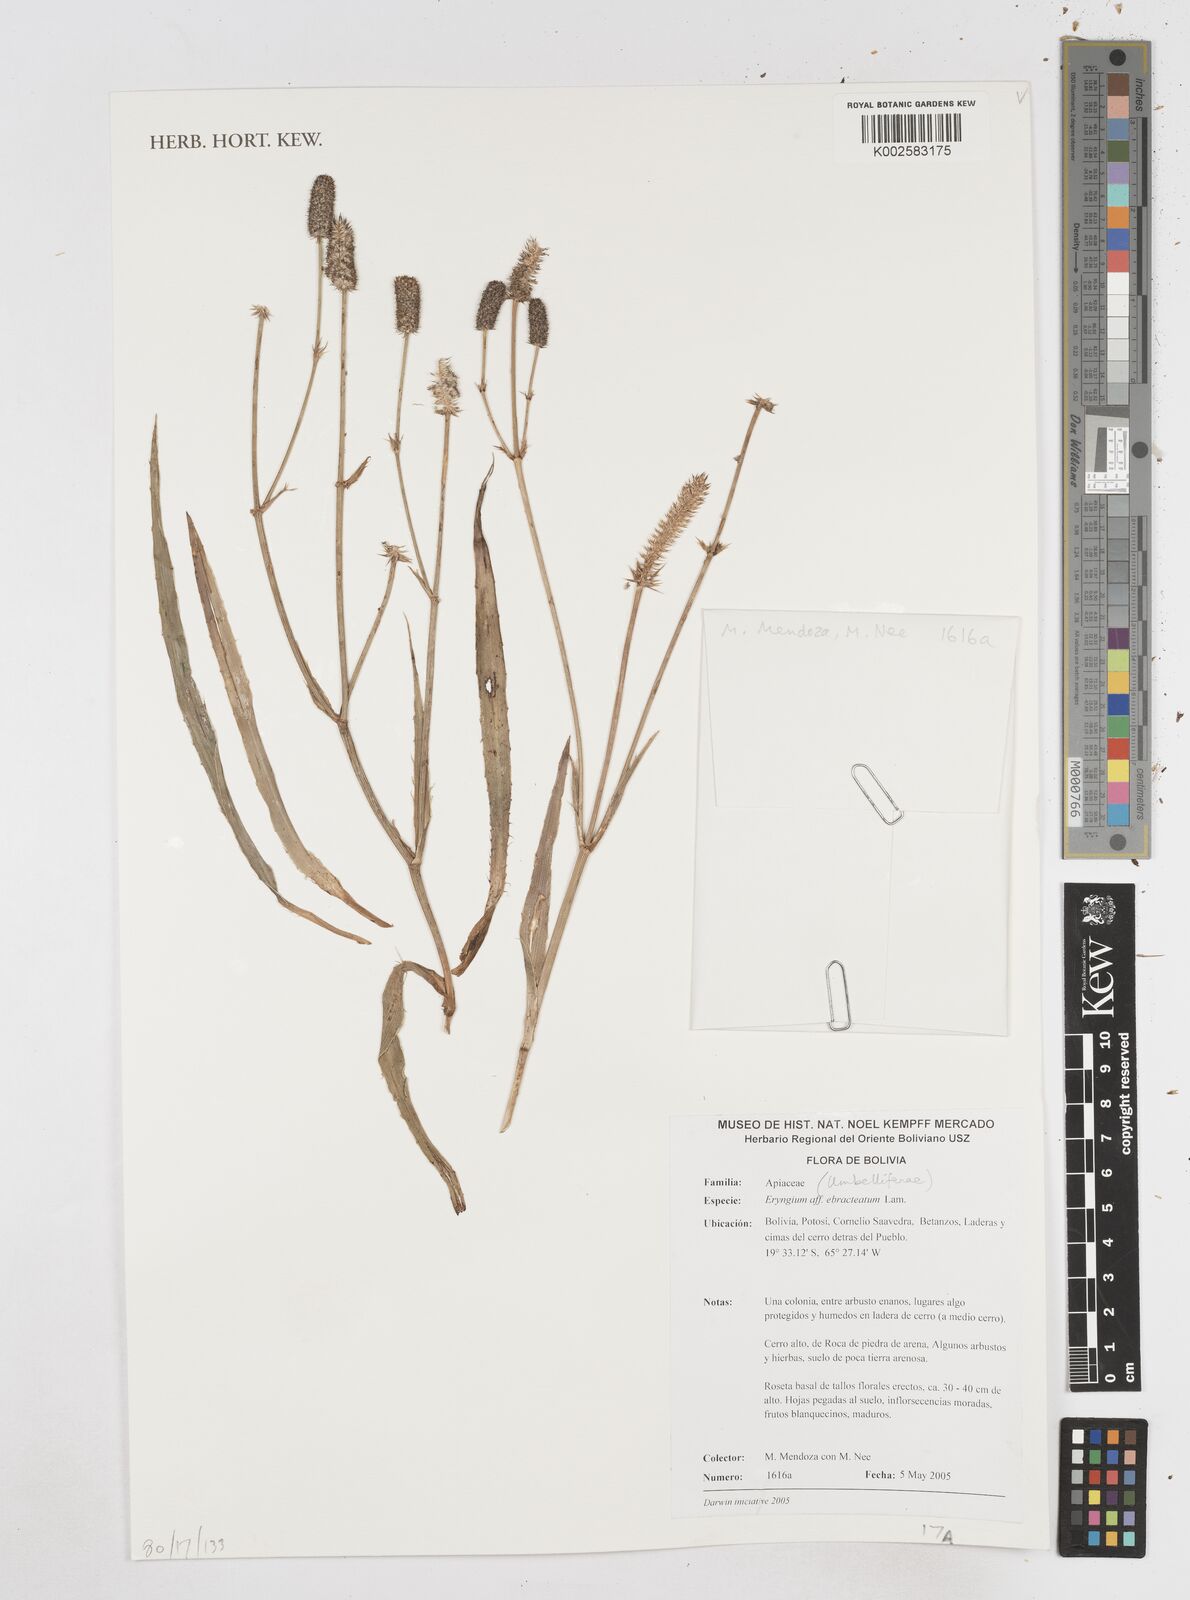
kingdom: Plantae
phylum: Tracheophyta
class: Magnoliopsida
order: Apiales
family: Apiaceae
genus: Eryngium
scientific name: Eryngium ebracteatum
